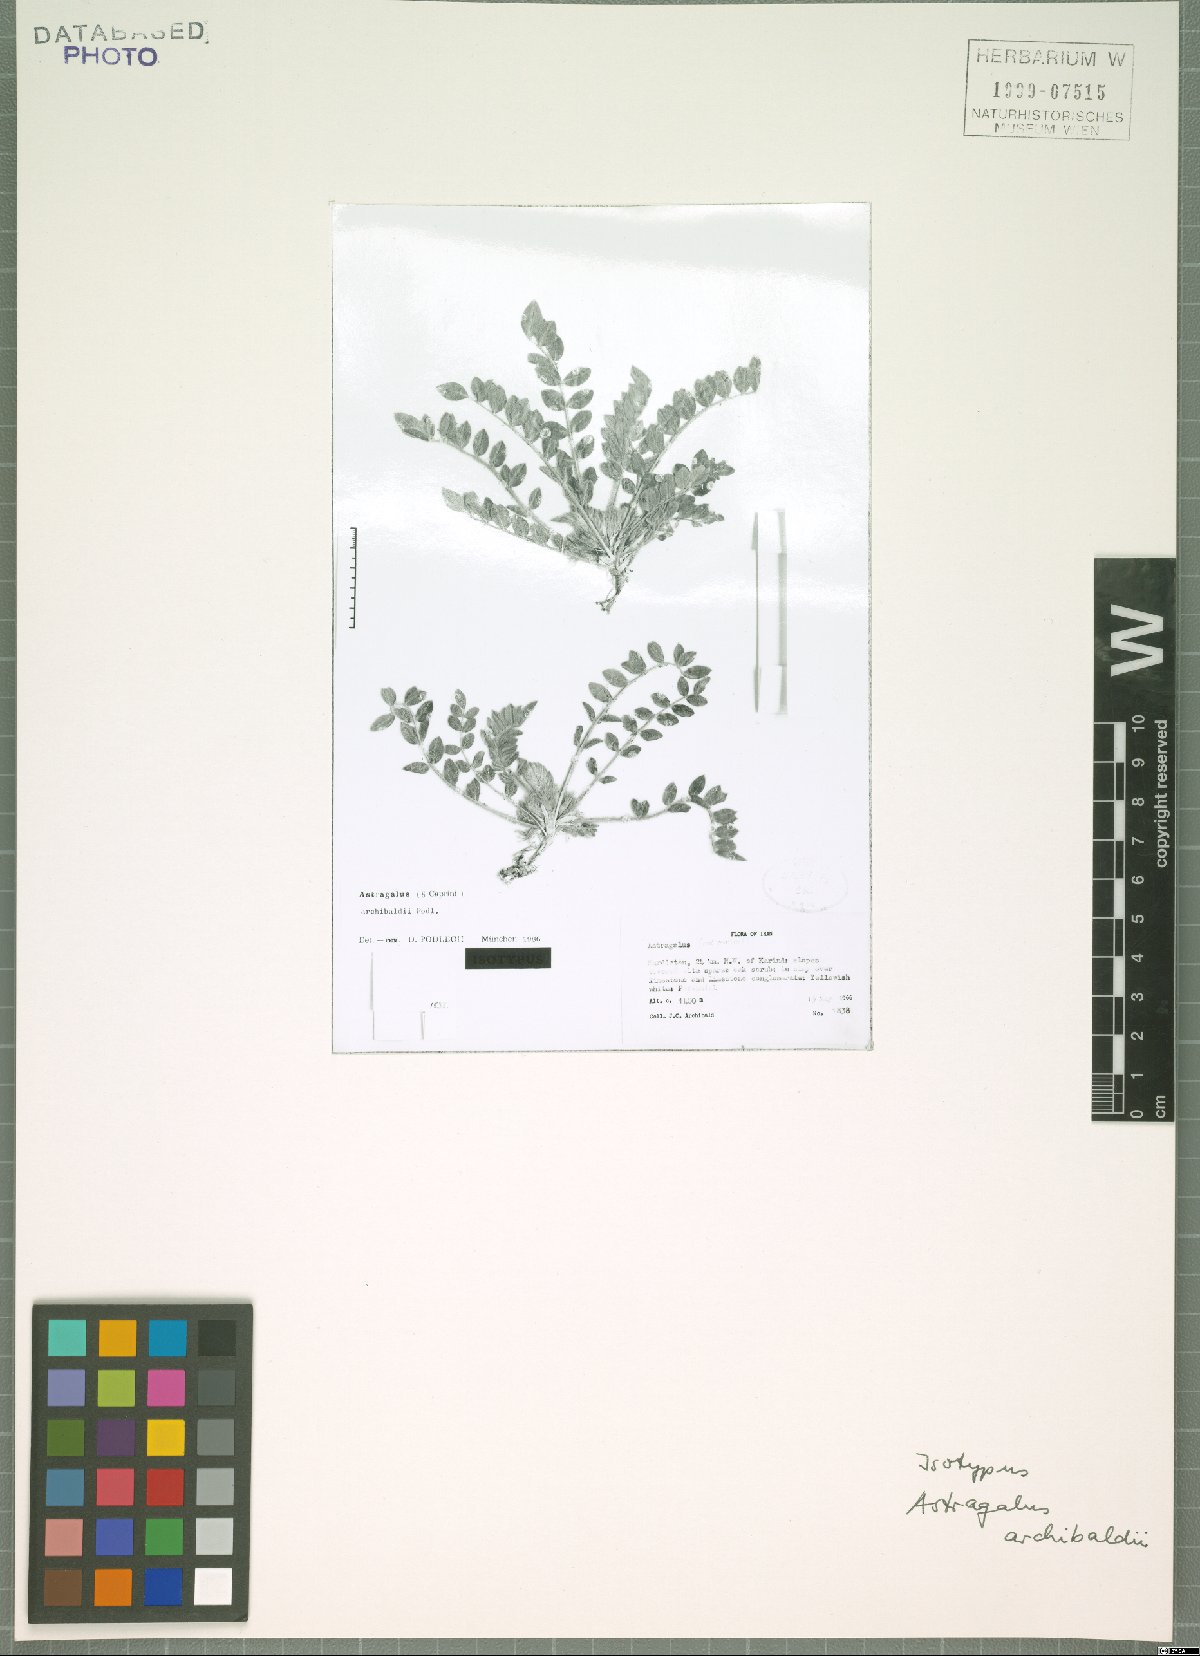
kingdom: Plantae
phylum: Tracheophyta
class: Magnoliopsida
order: Fabales
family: Fabaceae
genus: Astragalus
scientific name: Astragalus archibaldii
